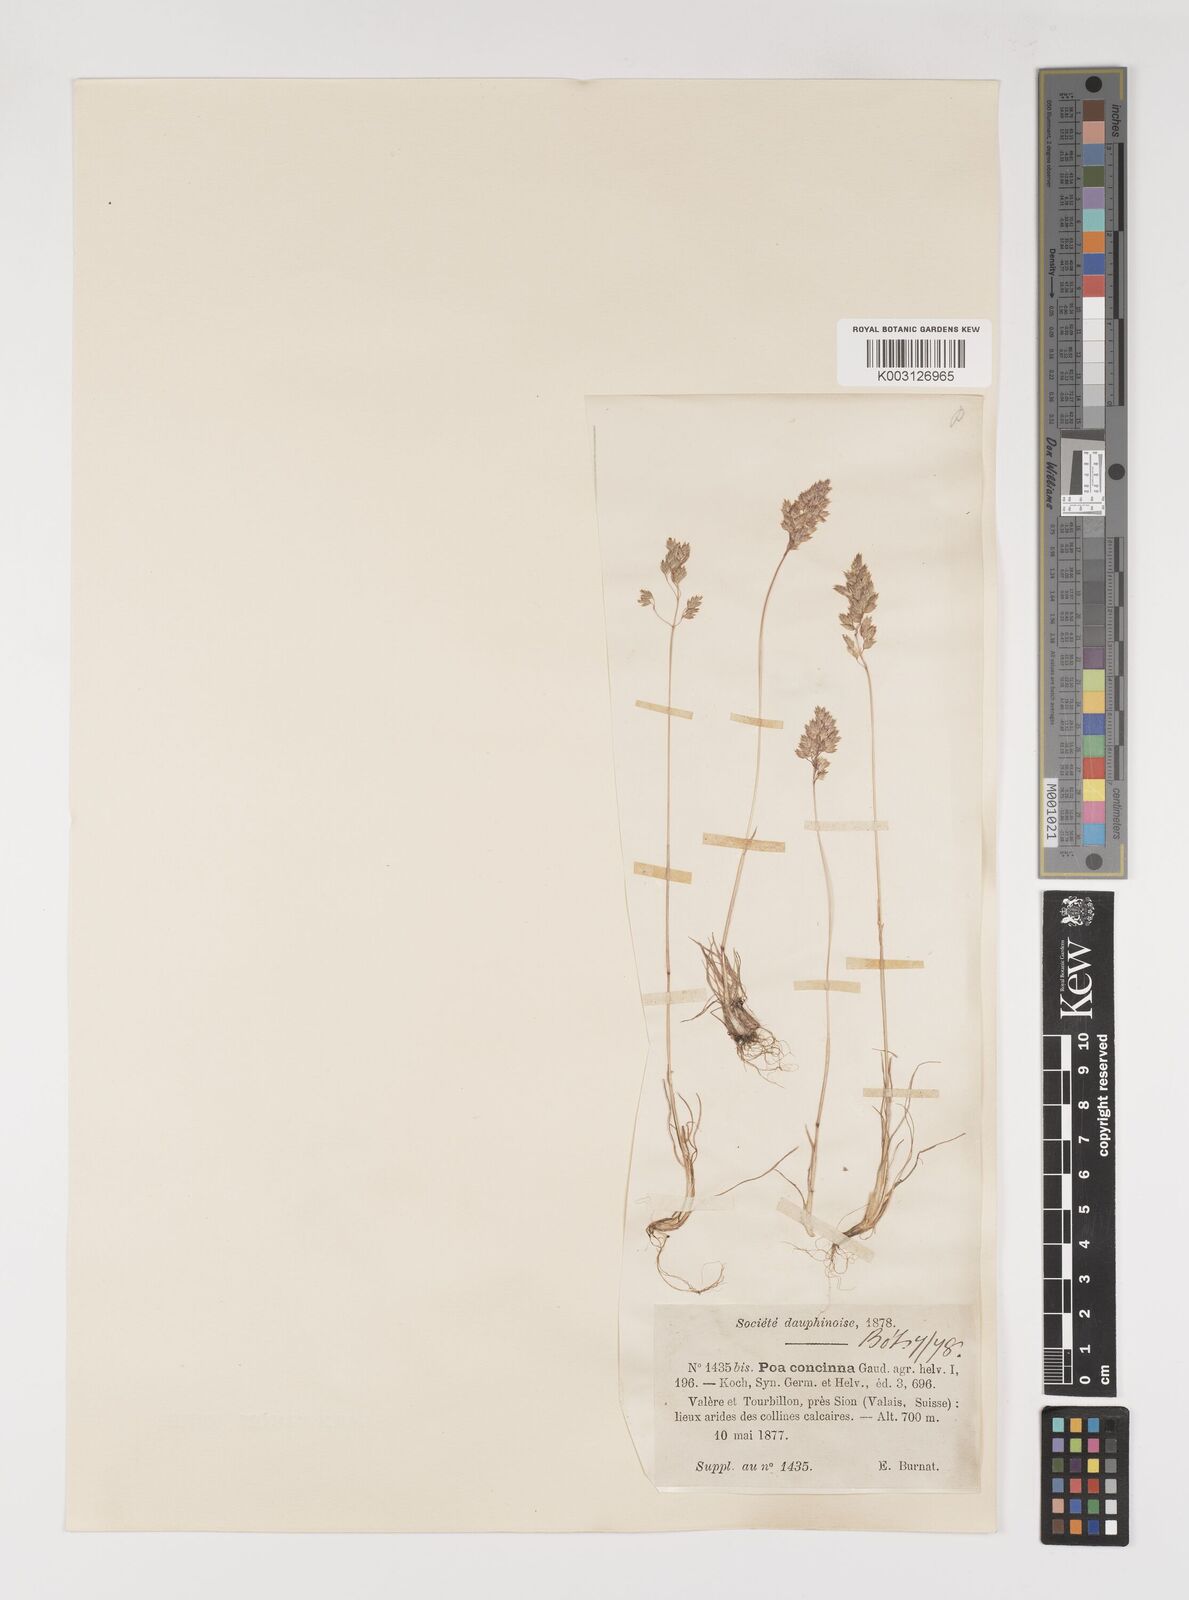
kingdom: Plantae
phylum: Tracheophyta
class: Liliopsida
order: Poales
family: Poaceae
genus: Poa
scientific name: Poa perconcinna
